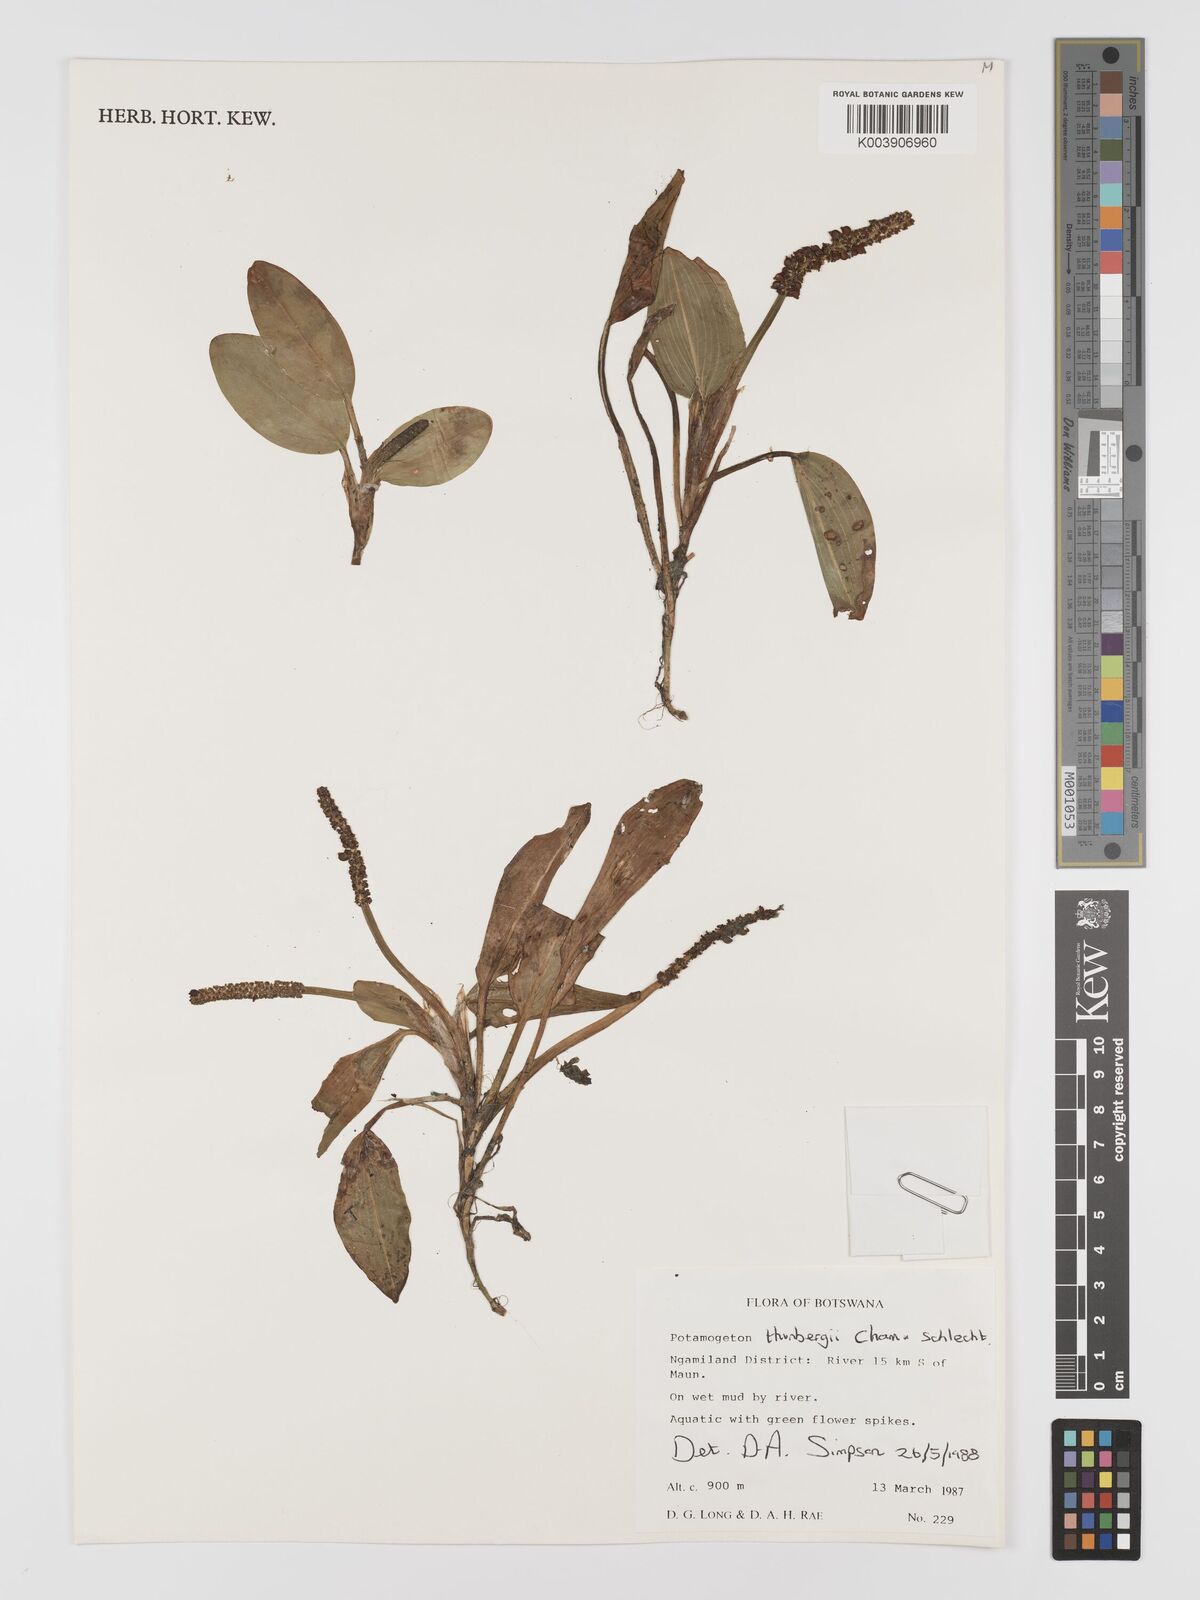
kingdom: Plantae
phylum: Tracheophyta
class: Liliopsida
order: Alismatales
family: Potamogetonaceae
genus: Potamogeton
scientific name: Potamogeton nodosus
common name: Loddon pondweed
